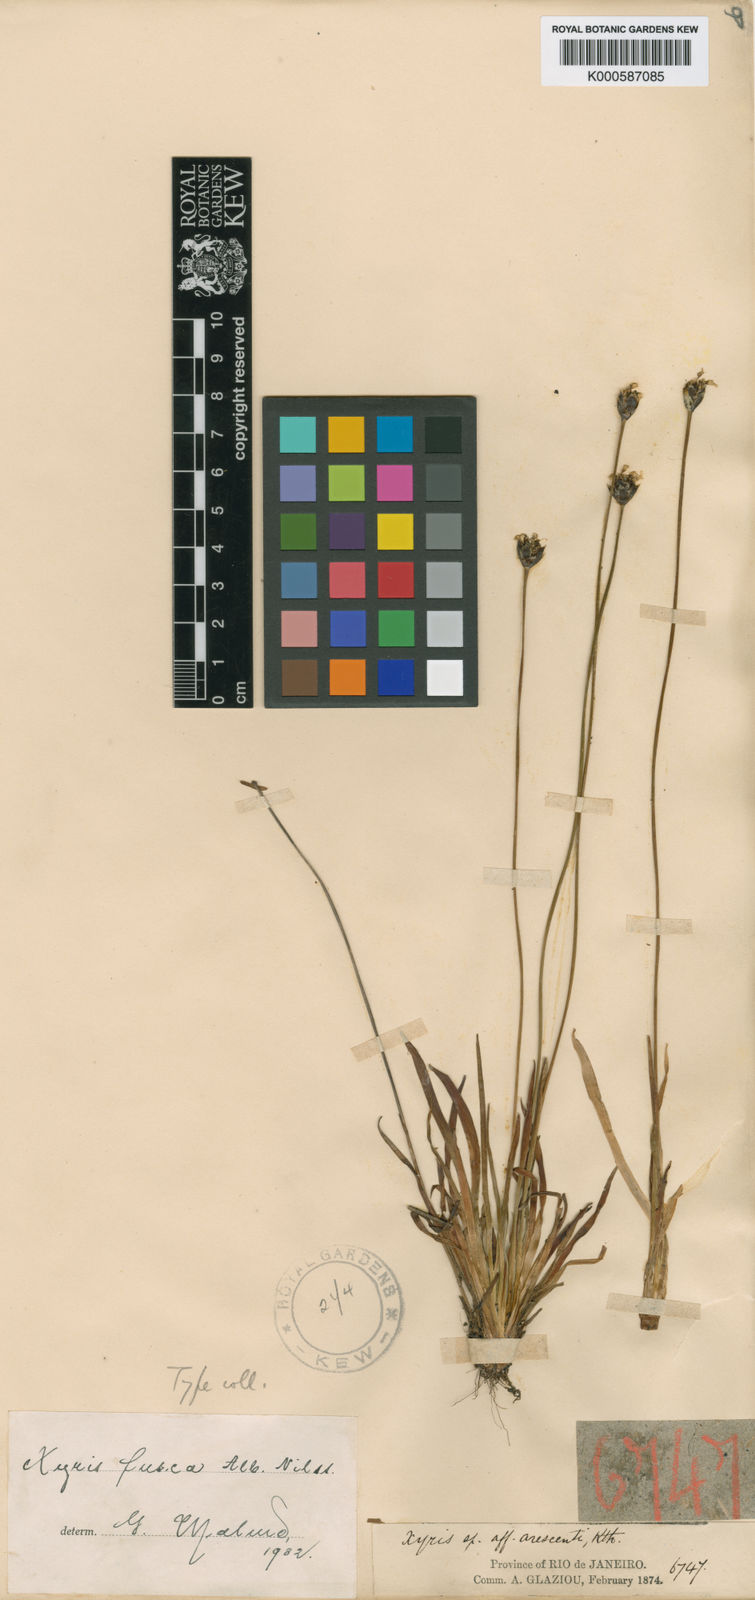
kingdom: Plantae
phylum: Tracheophyta
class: Liliopsida
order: Poales
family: Xyridaceae
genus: Xyris
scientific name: Xyris fusca
